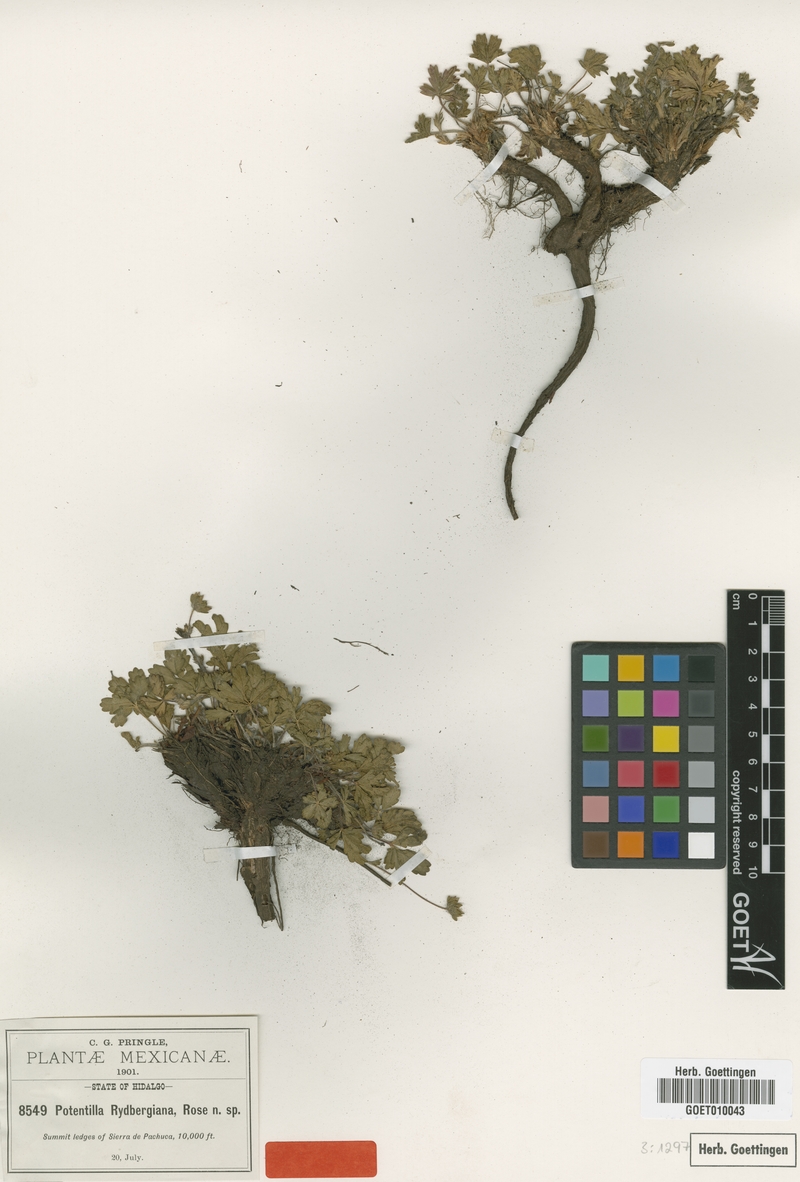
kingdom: Plantae
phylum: Tracheophyta
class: Magnoliopsida
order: Rosales
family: Rosaceae
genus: Potentilla
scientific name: Potentilla ranunculoides
